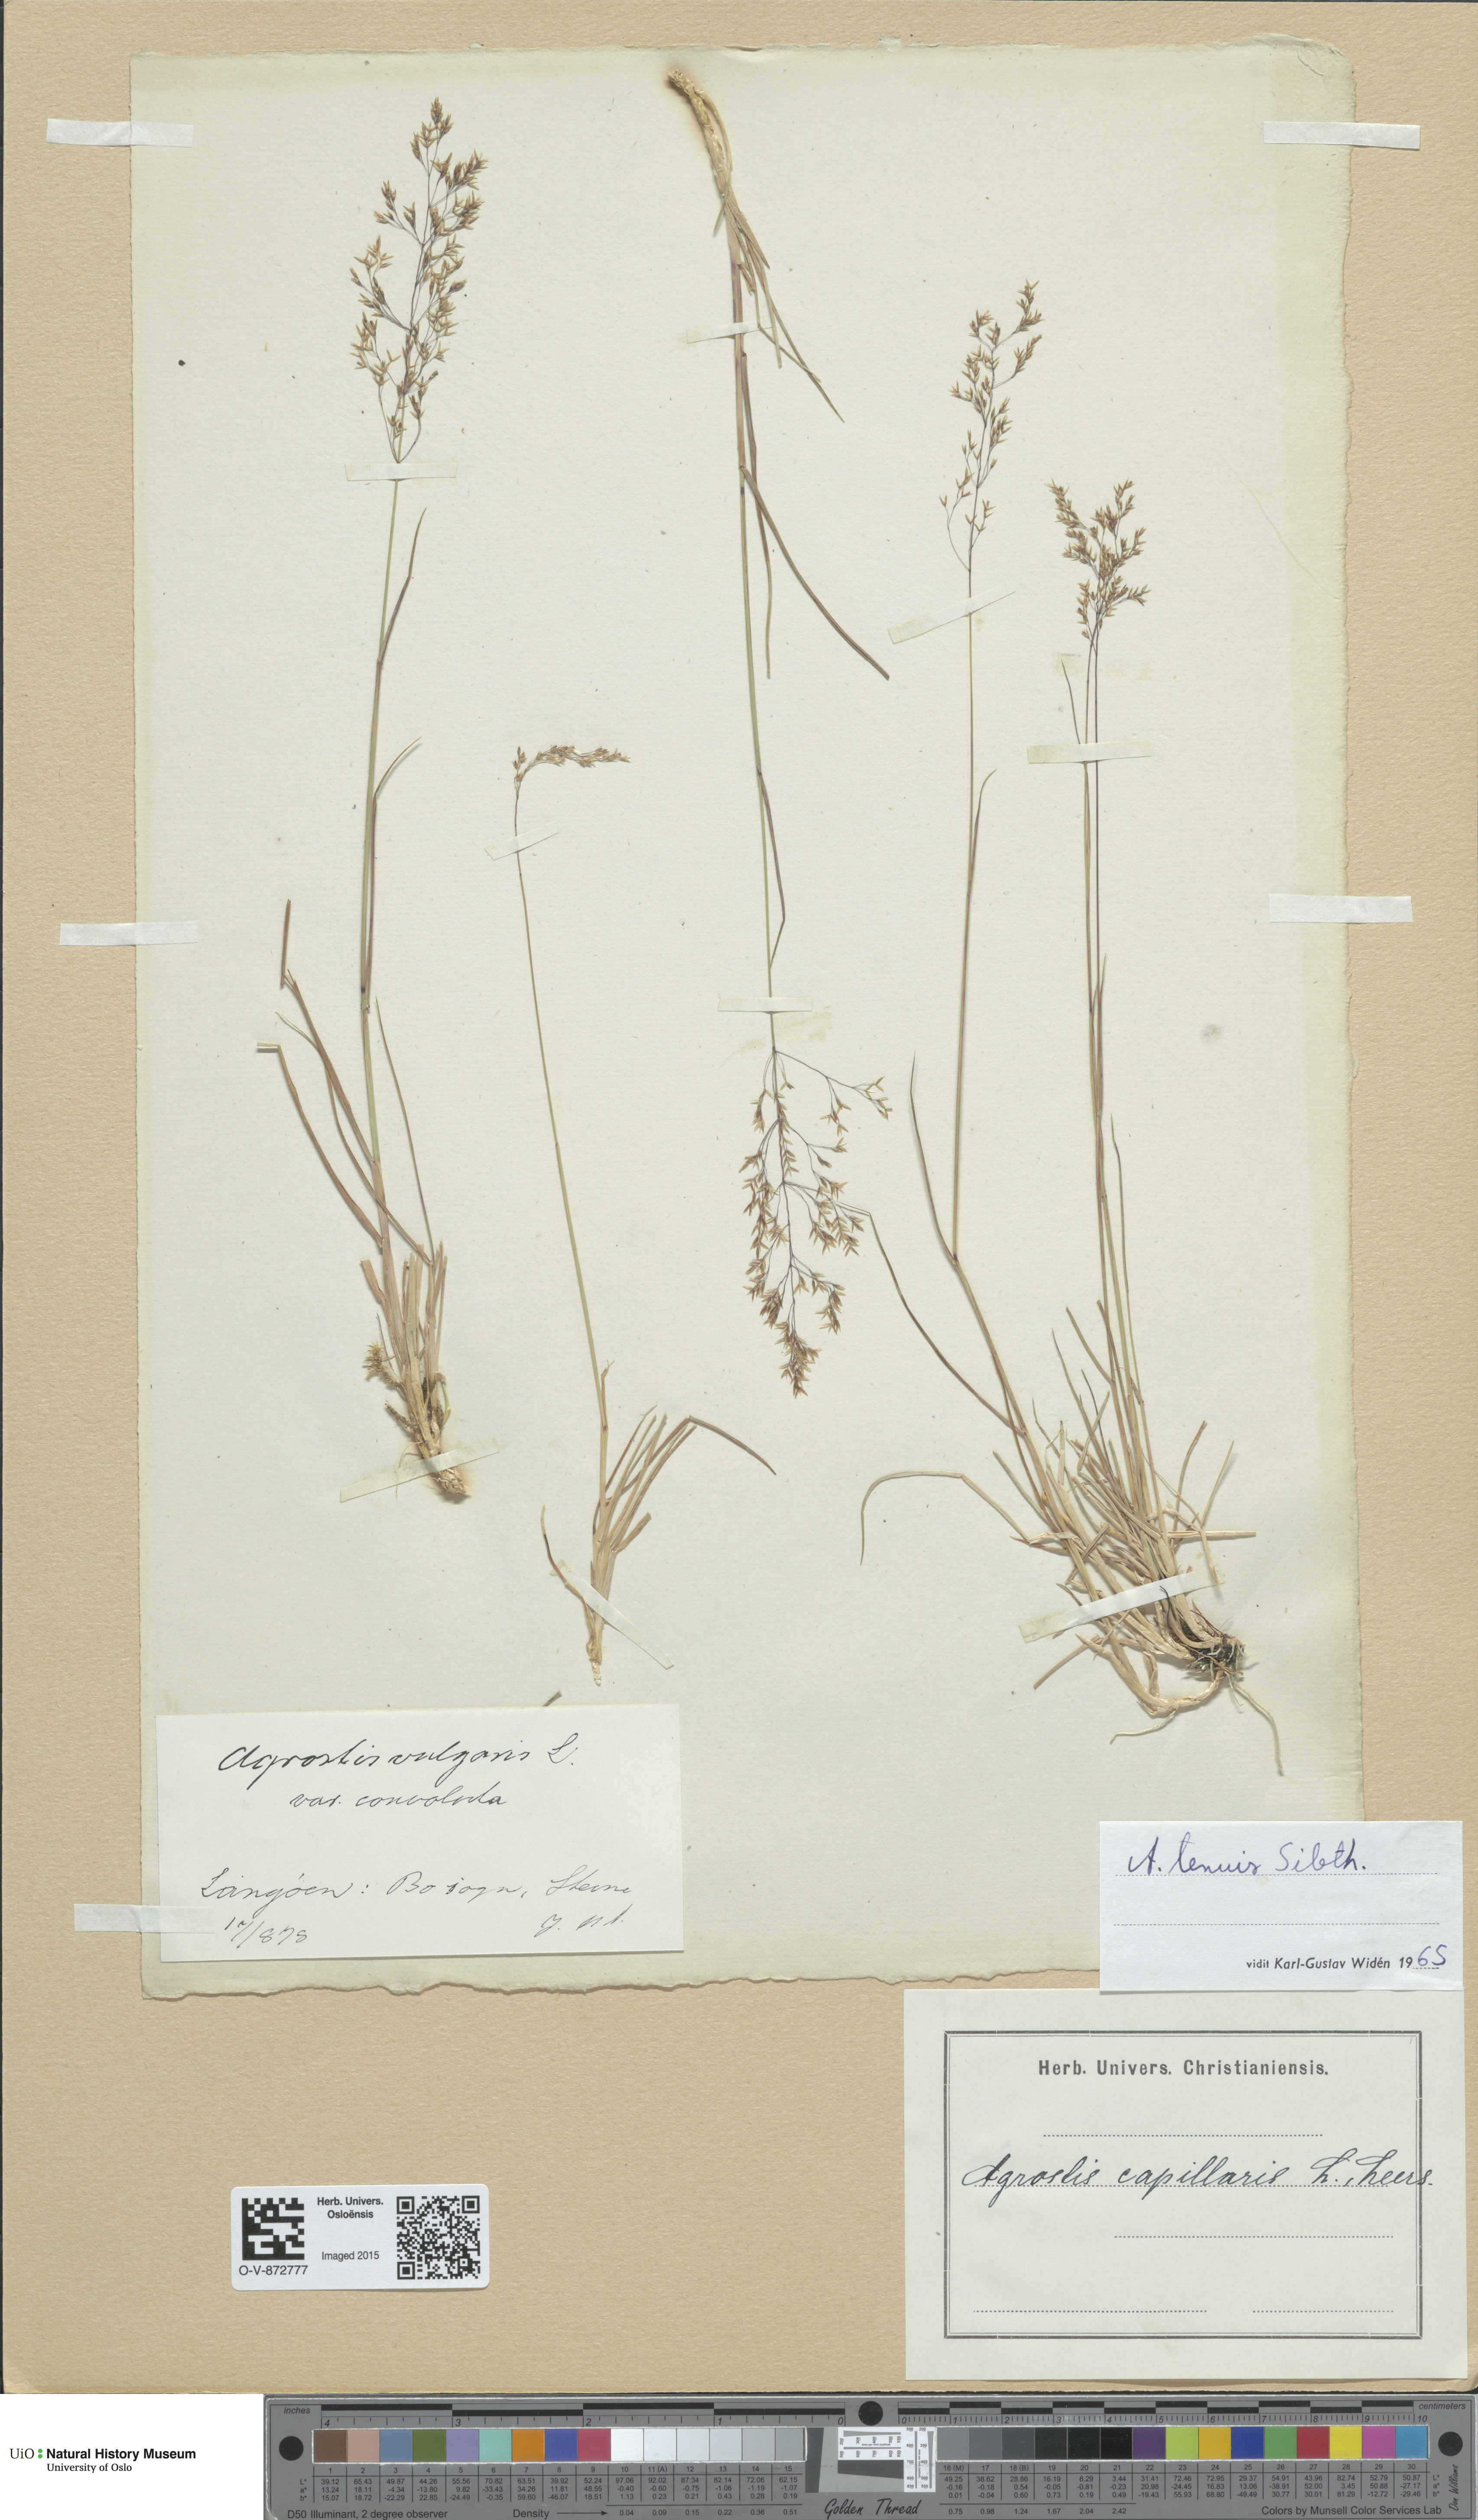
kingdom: Plantae
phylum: Tracheophyta
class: Liliopsida
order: Poales
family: Poaceae
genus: Agrostis
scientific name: Agrostis capillaris
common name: Colonial bentgrass
